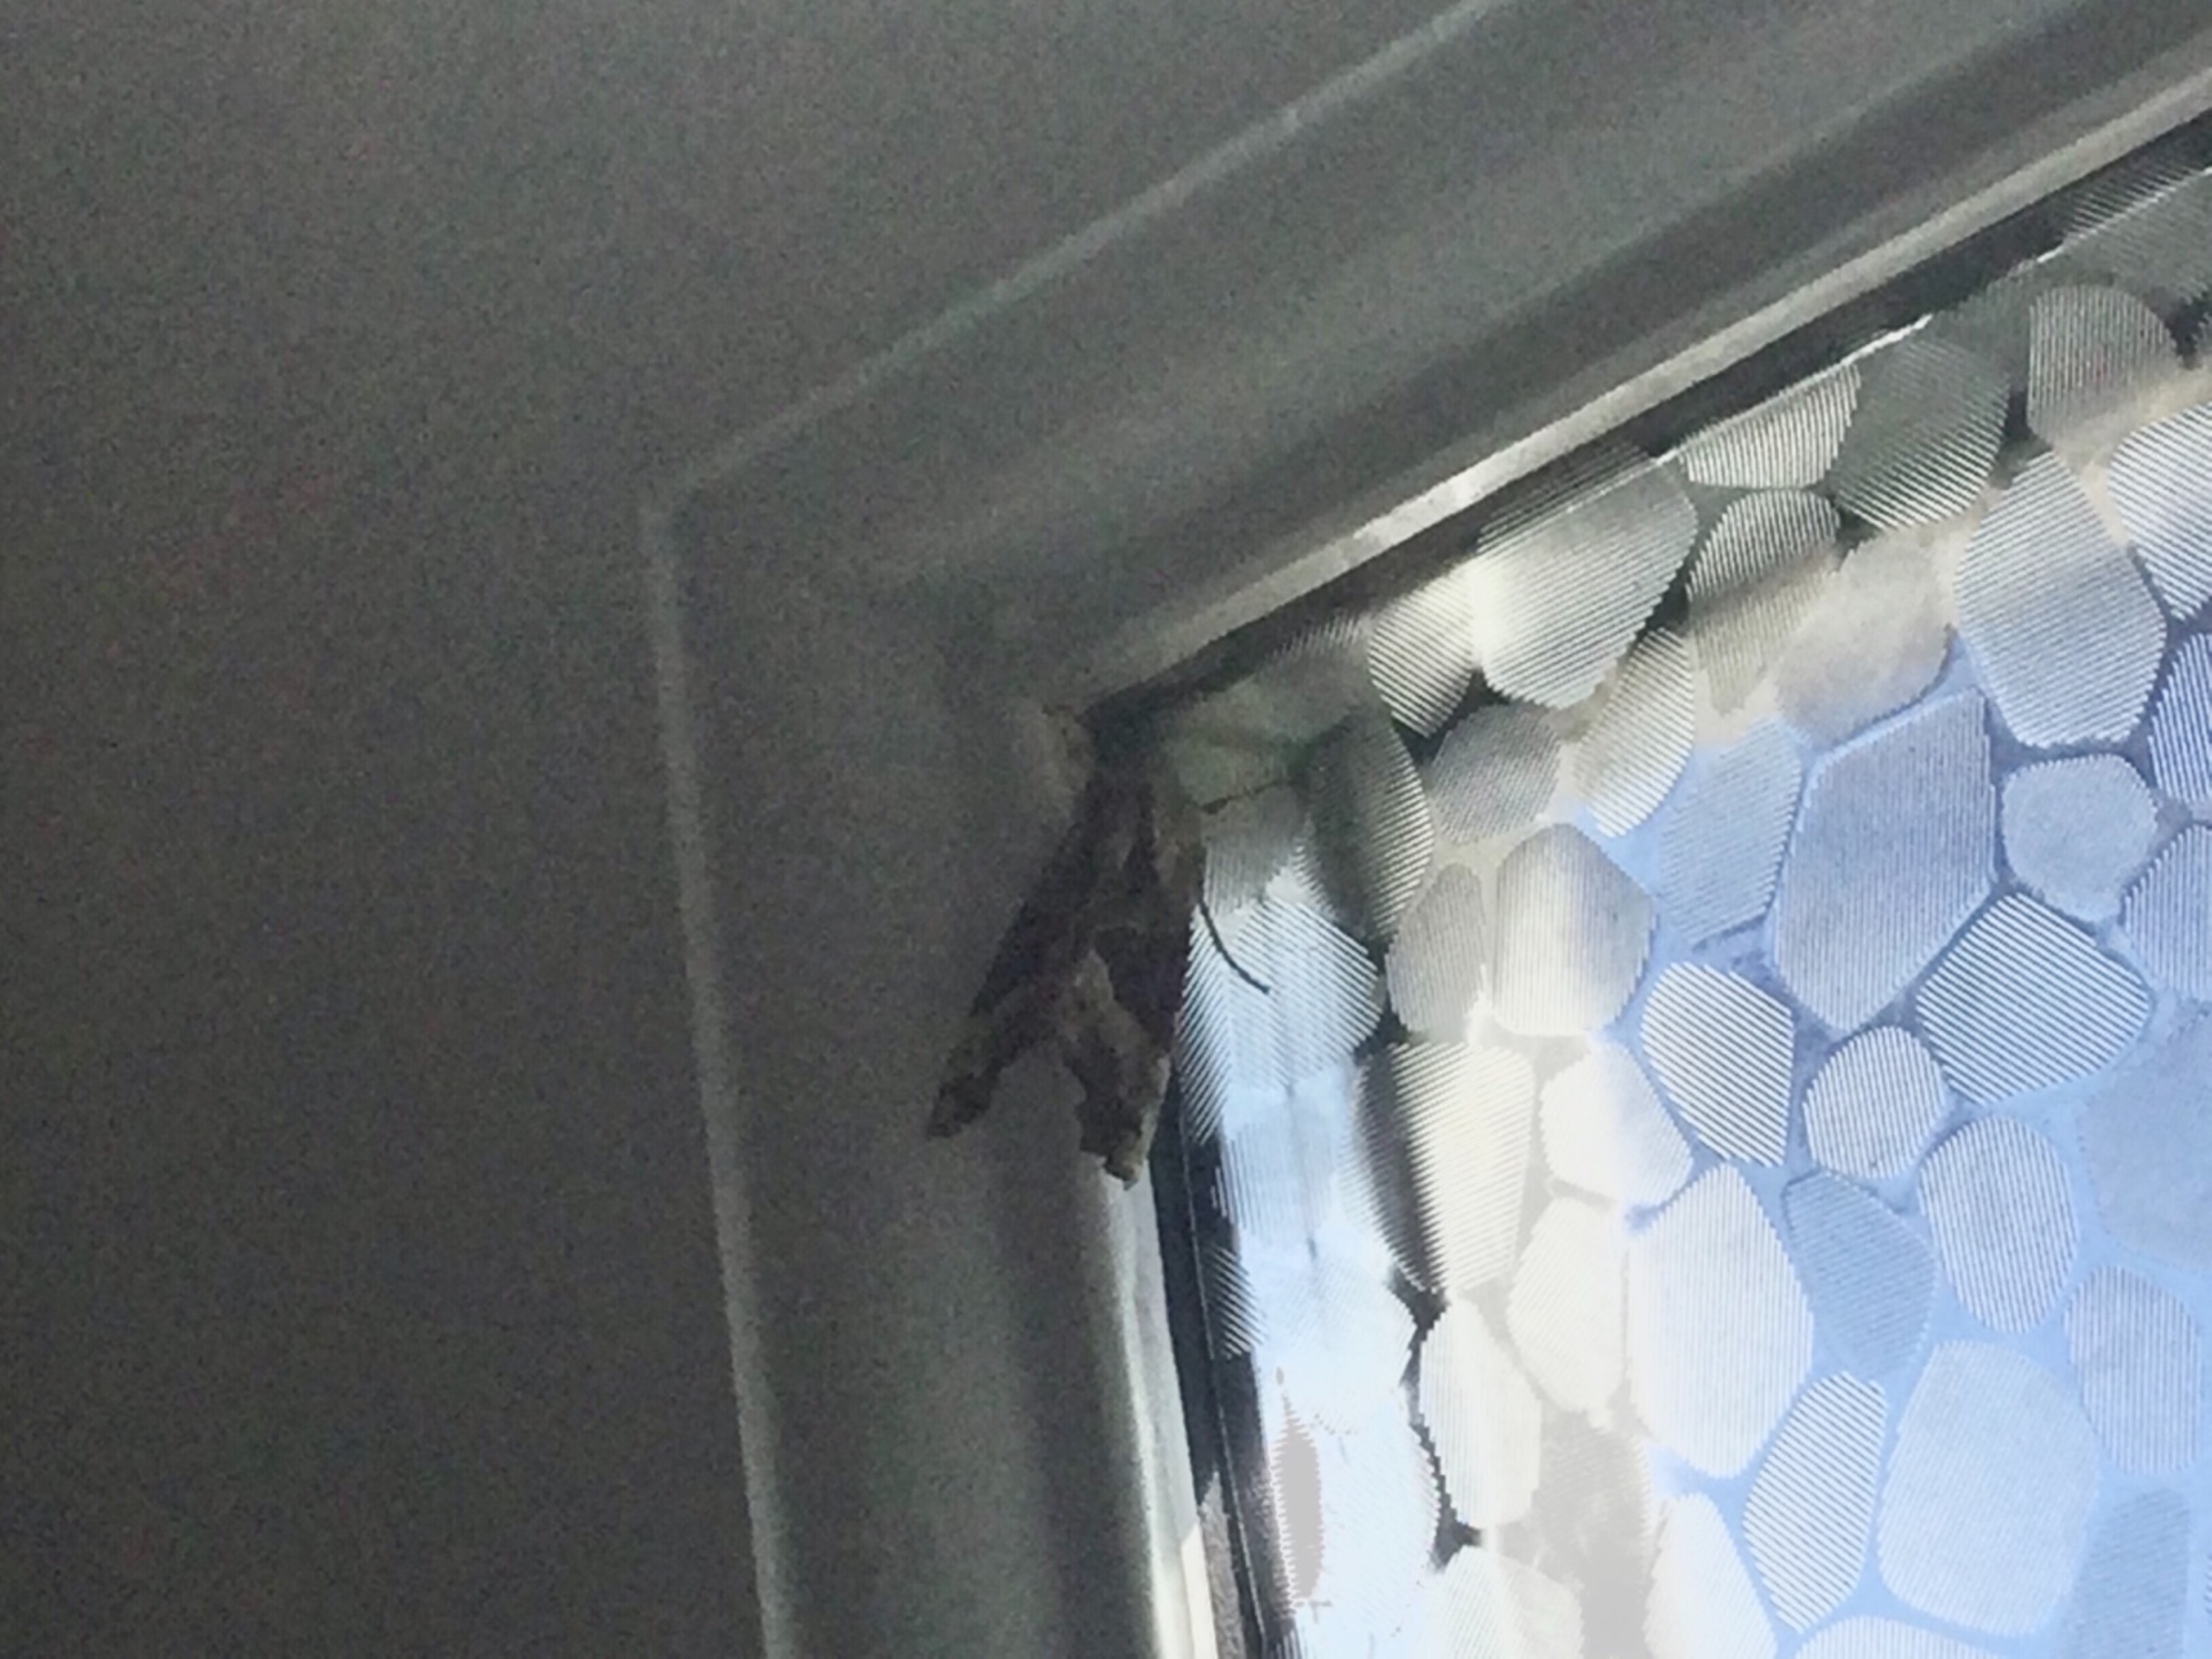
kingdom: Animalia
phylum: Arthropoda
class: Insecta
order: Lepidoptera
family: Noctuidae
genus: Phlogophora
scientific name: Phlogophora meticulosa
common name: Agatugle
